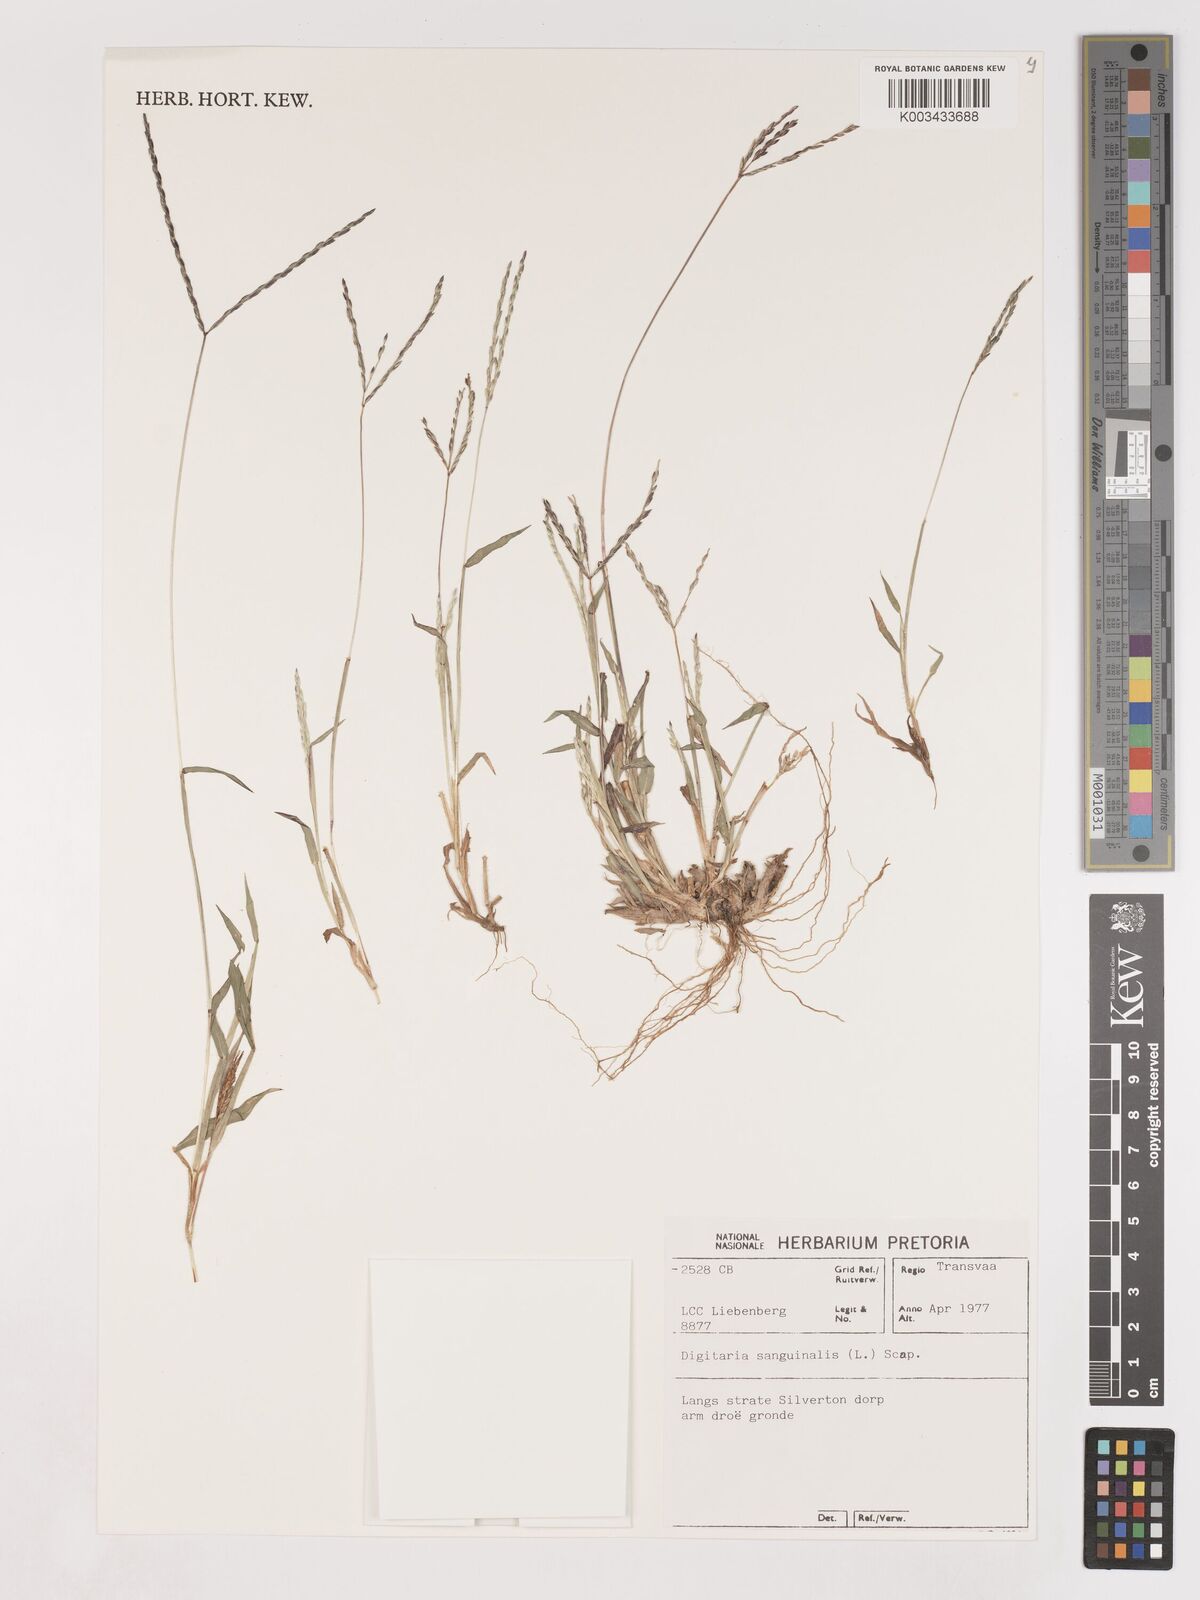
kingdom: Plantae
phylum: Tracheophyta
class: Liliopsida
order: Poales
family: Poaceae
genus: Digitaria
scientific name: Digitaria sanguinalis
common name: Hairy crabgrass
